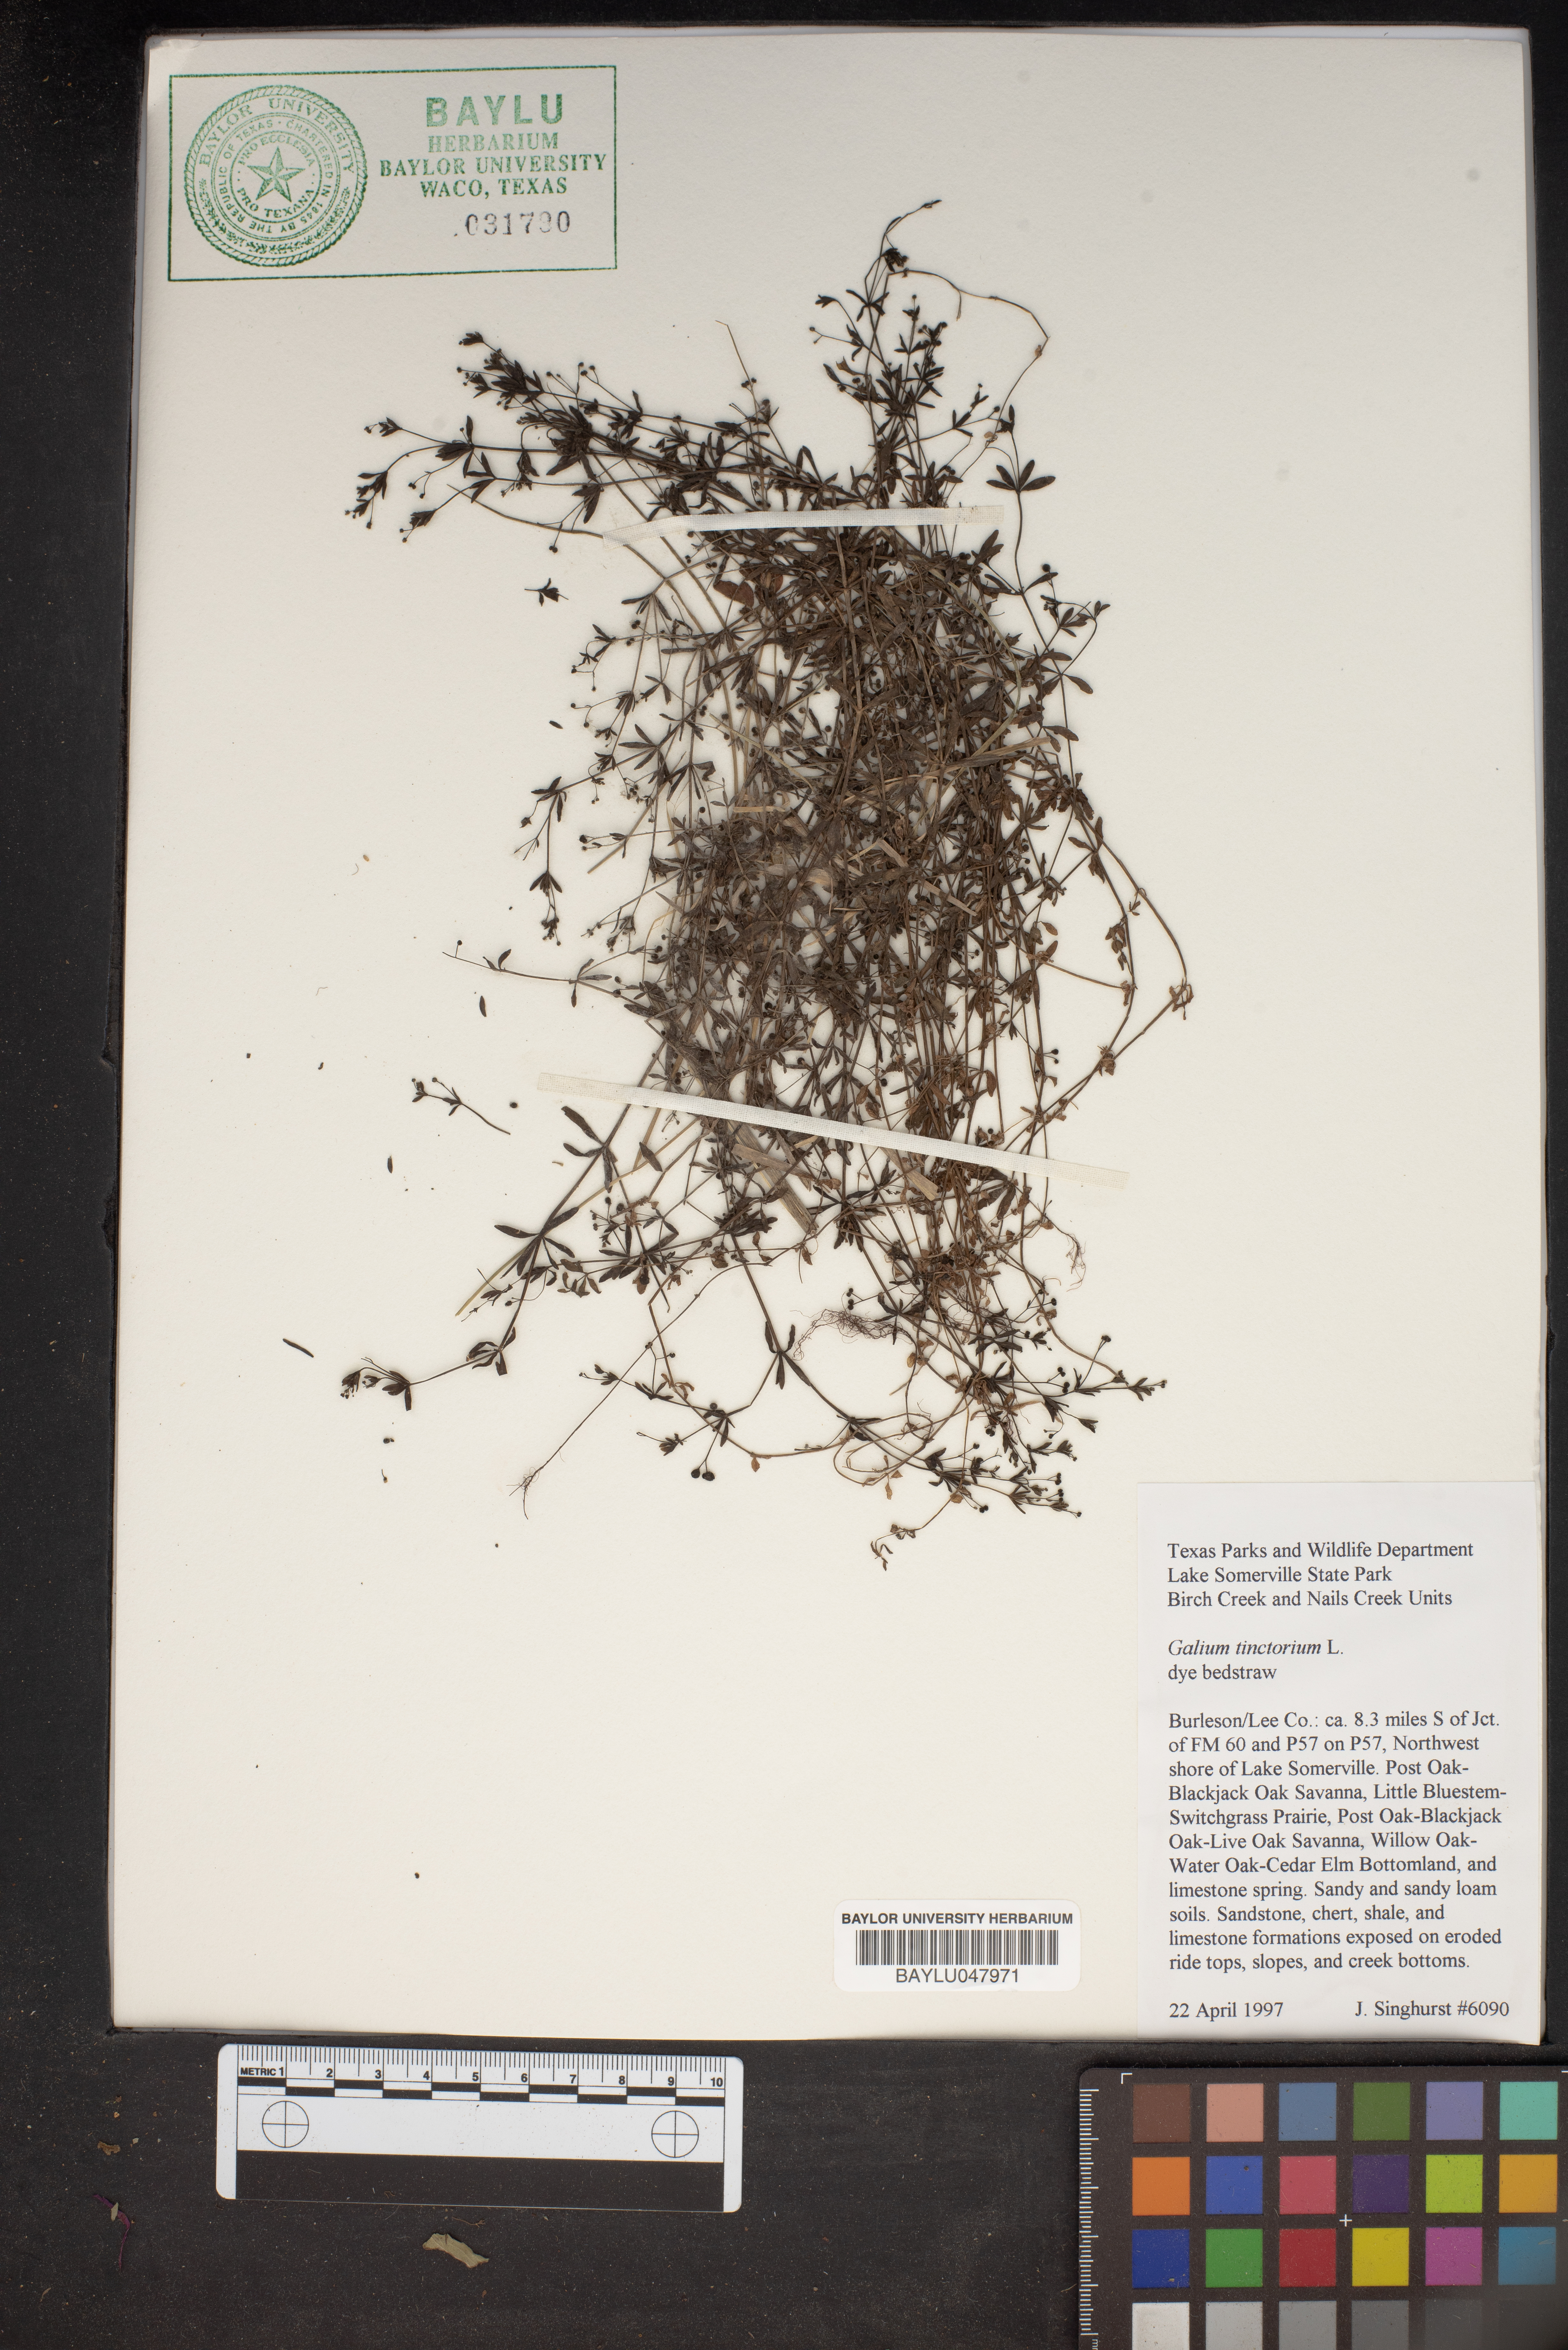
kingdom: Plantae
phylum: Tracheophyta
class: Magnoliopsida
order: Gentianales
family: Rubiaceae
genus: Asperula
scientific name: Asperula tinctoria
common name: Dyer's woodruff
